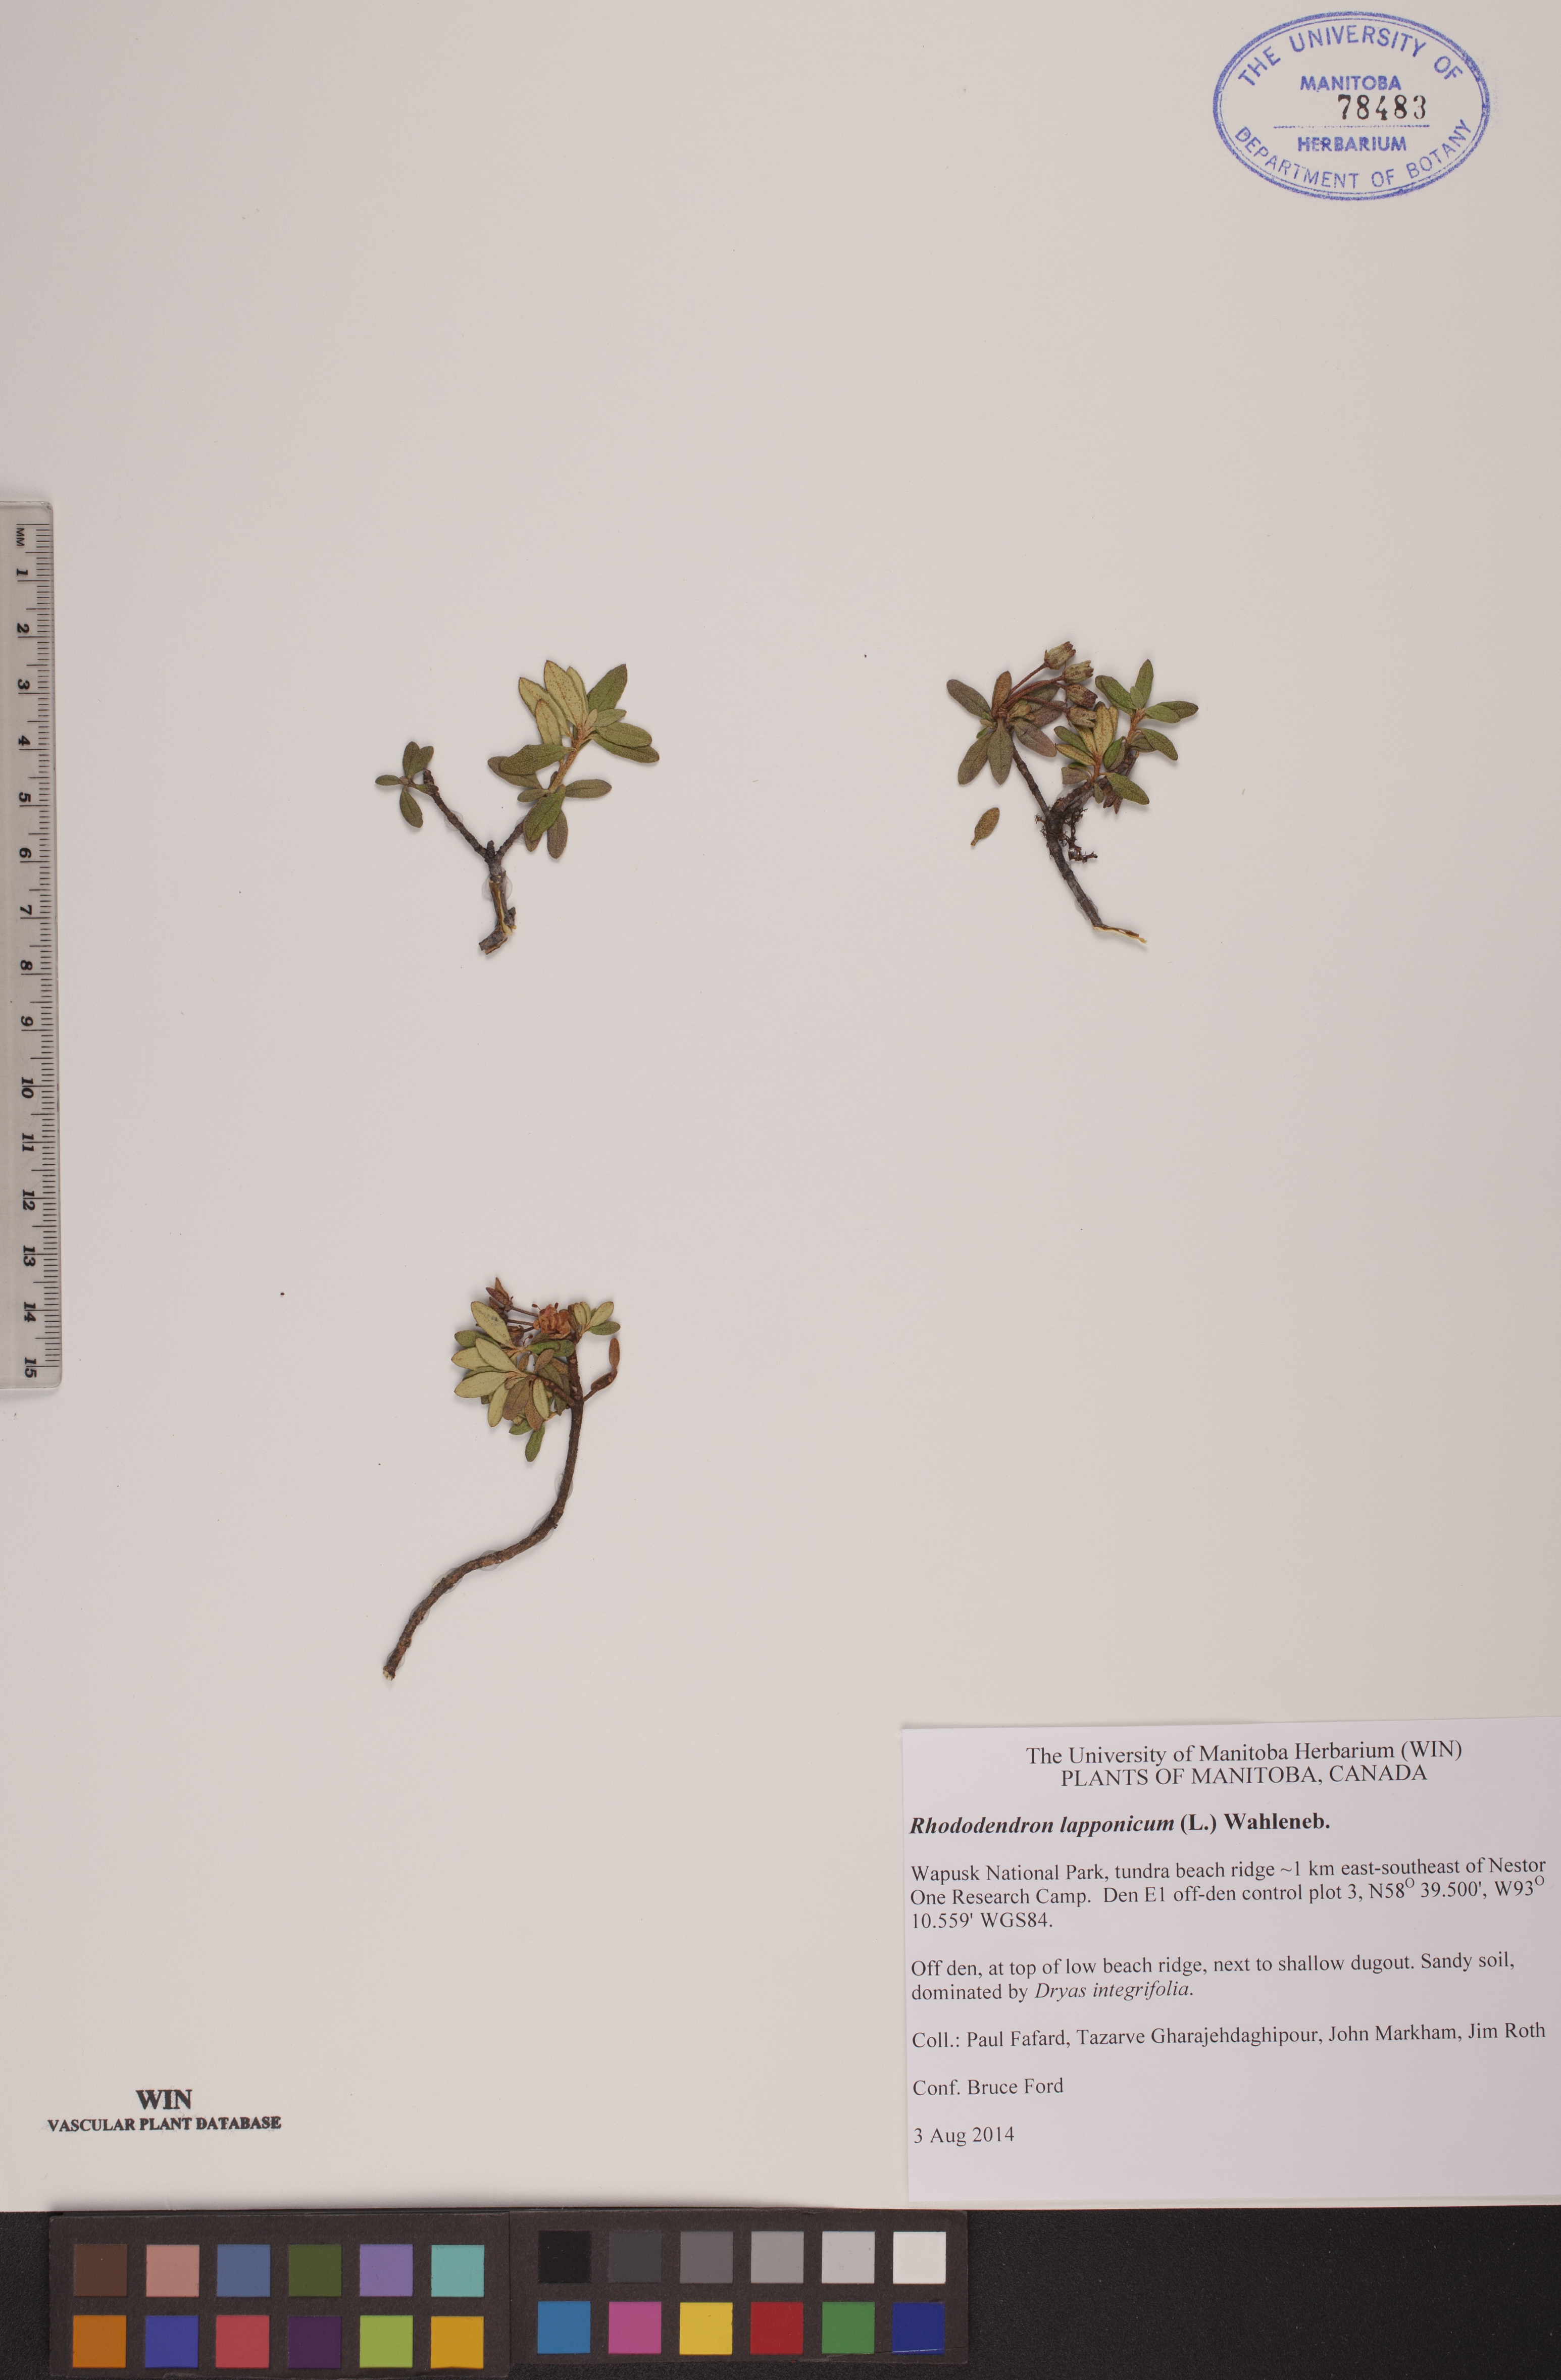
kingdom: Plantae
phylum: Tracheophyta
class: Magnoliopsida
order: Ericales
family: Ericaceae
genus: Rhododendron
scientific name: Rhododendron lapponicum
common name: Lapland rhododendron
